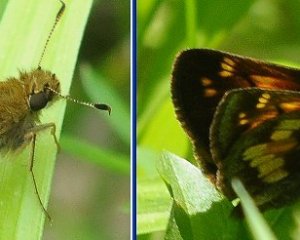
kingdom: Animalia
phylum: Arthropoda
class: Insecta
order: Lepidoptera
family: Hesperiidae
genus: Lon
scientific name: Lon hobomok
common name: Hobomok Skipper
